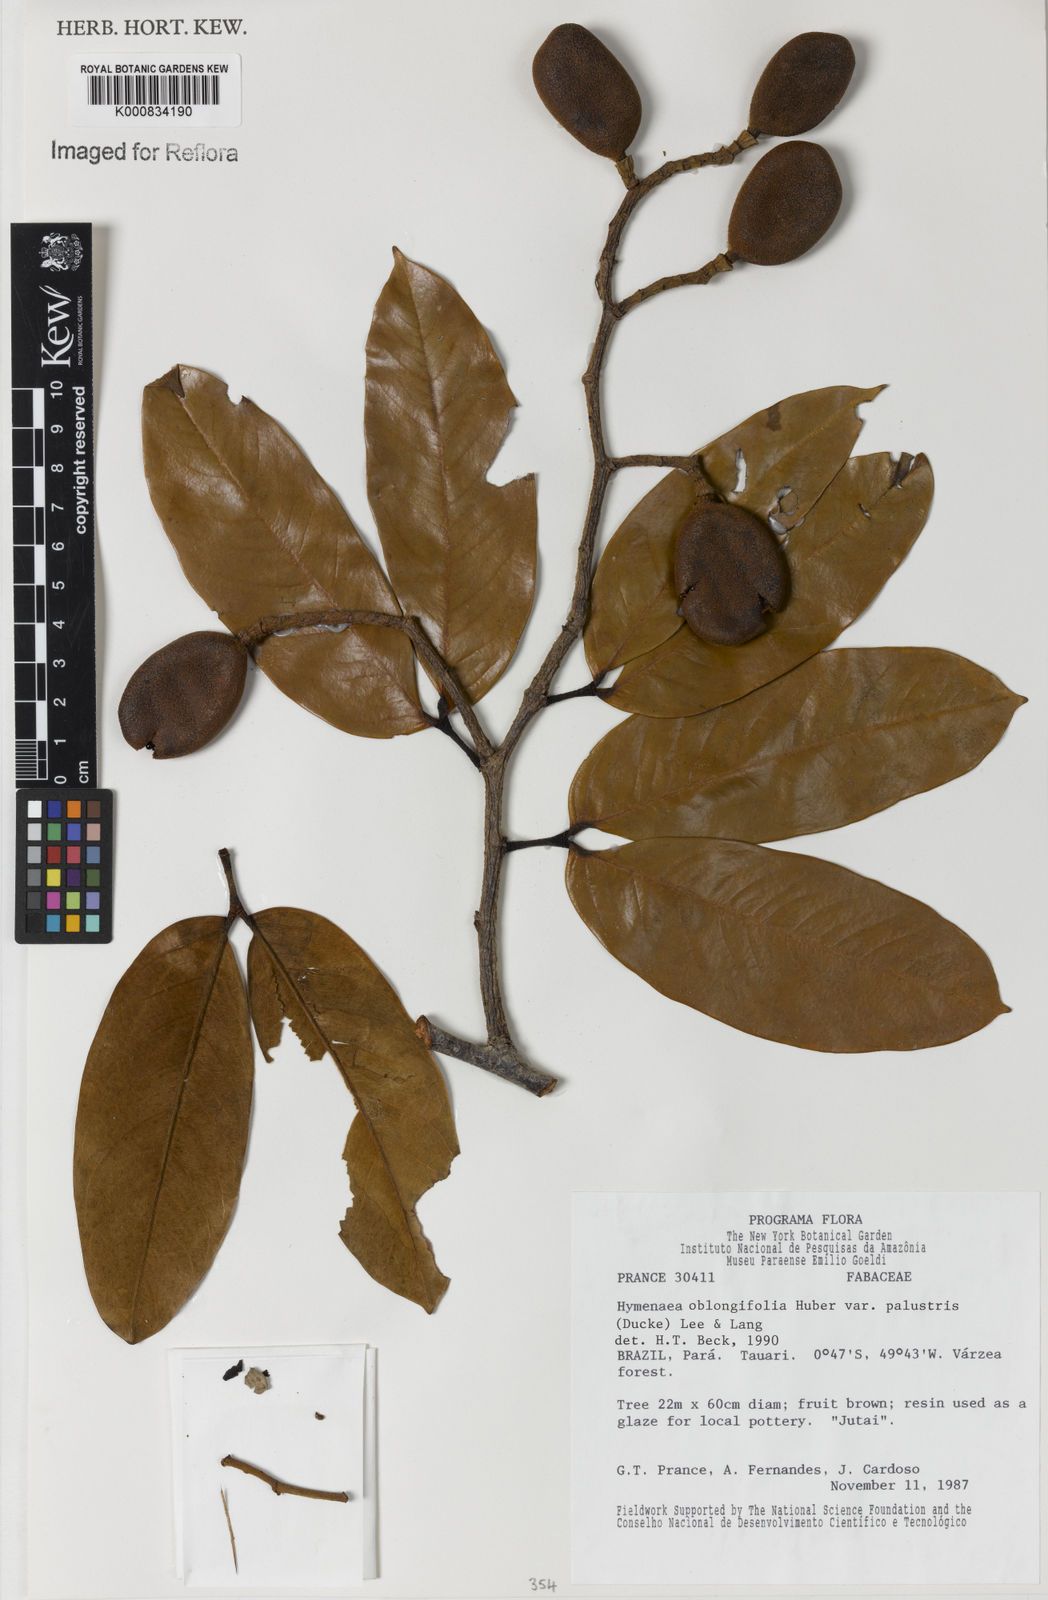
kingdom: Plantae
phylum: Tracheophyta
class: Magnoliopsida
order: Fabales
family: Fabaceae
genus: Hymenaea
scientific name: Hymenaea oblongifolia
